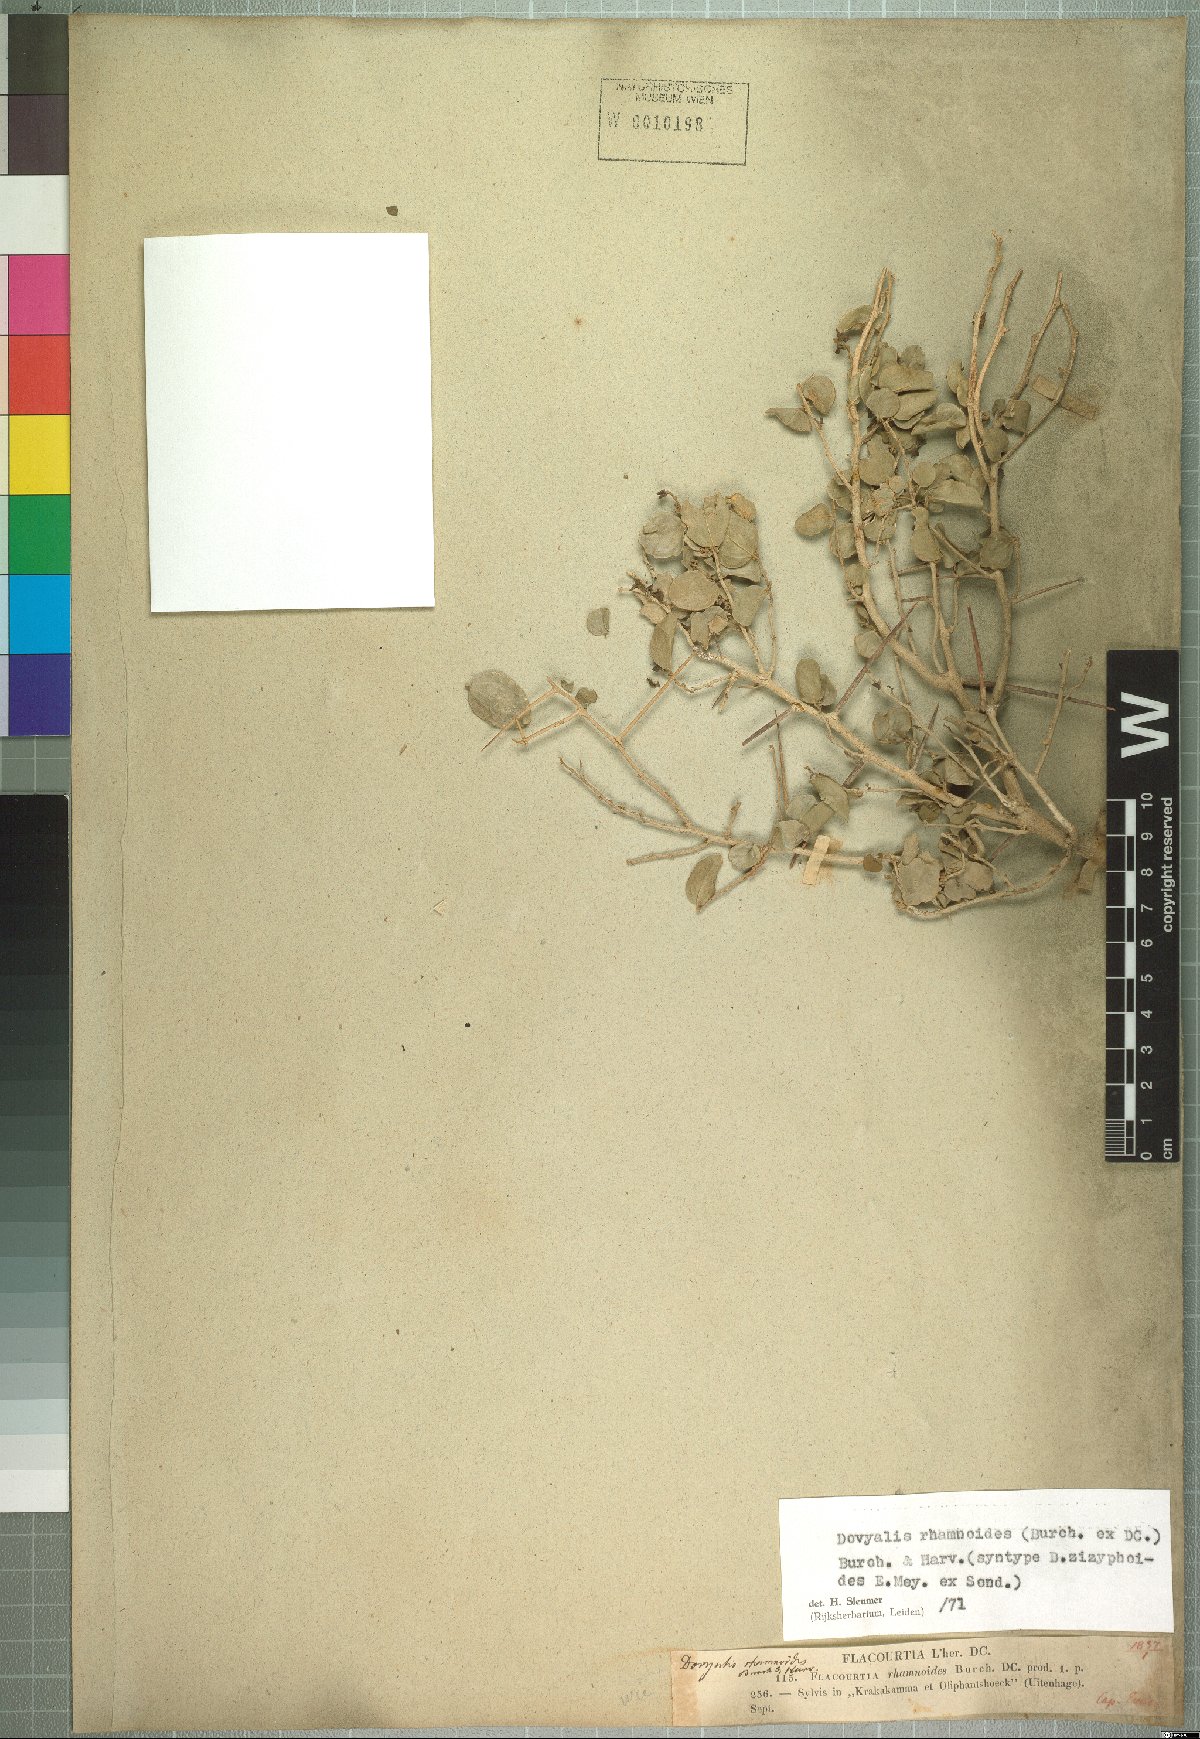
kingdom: Plantae
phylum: Tracheophyta
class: Magnoliopsida
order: Malpighiales
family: Salicaceae
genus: Dovyalis
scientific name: Dovyalis rhamnoides
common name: Sourberry
